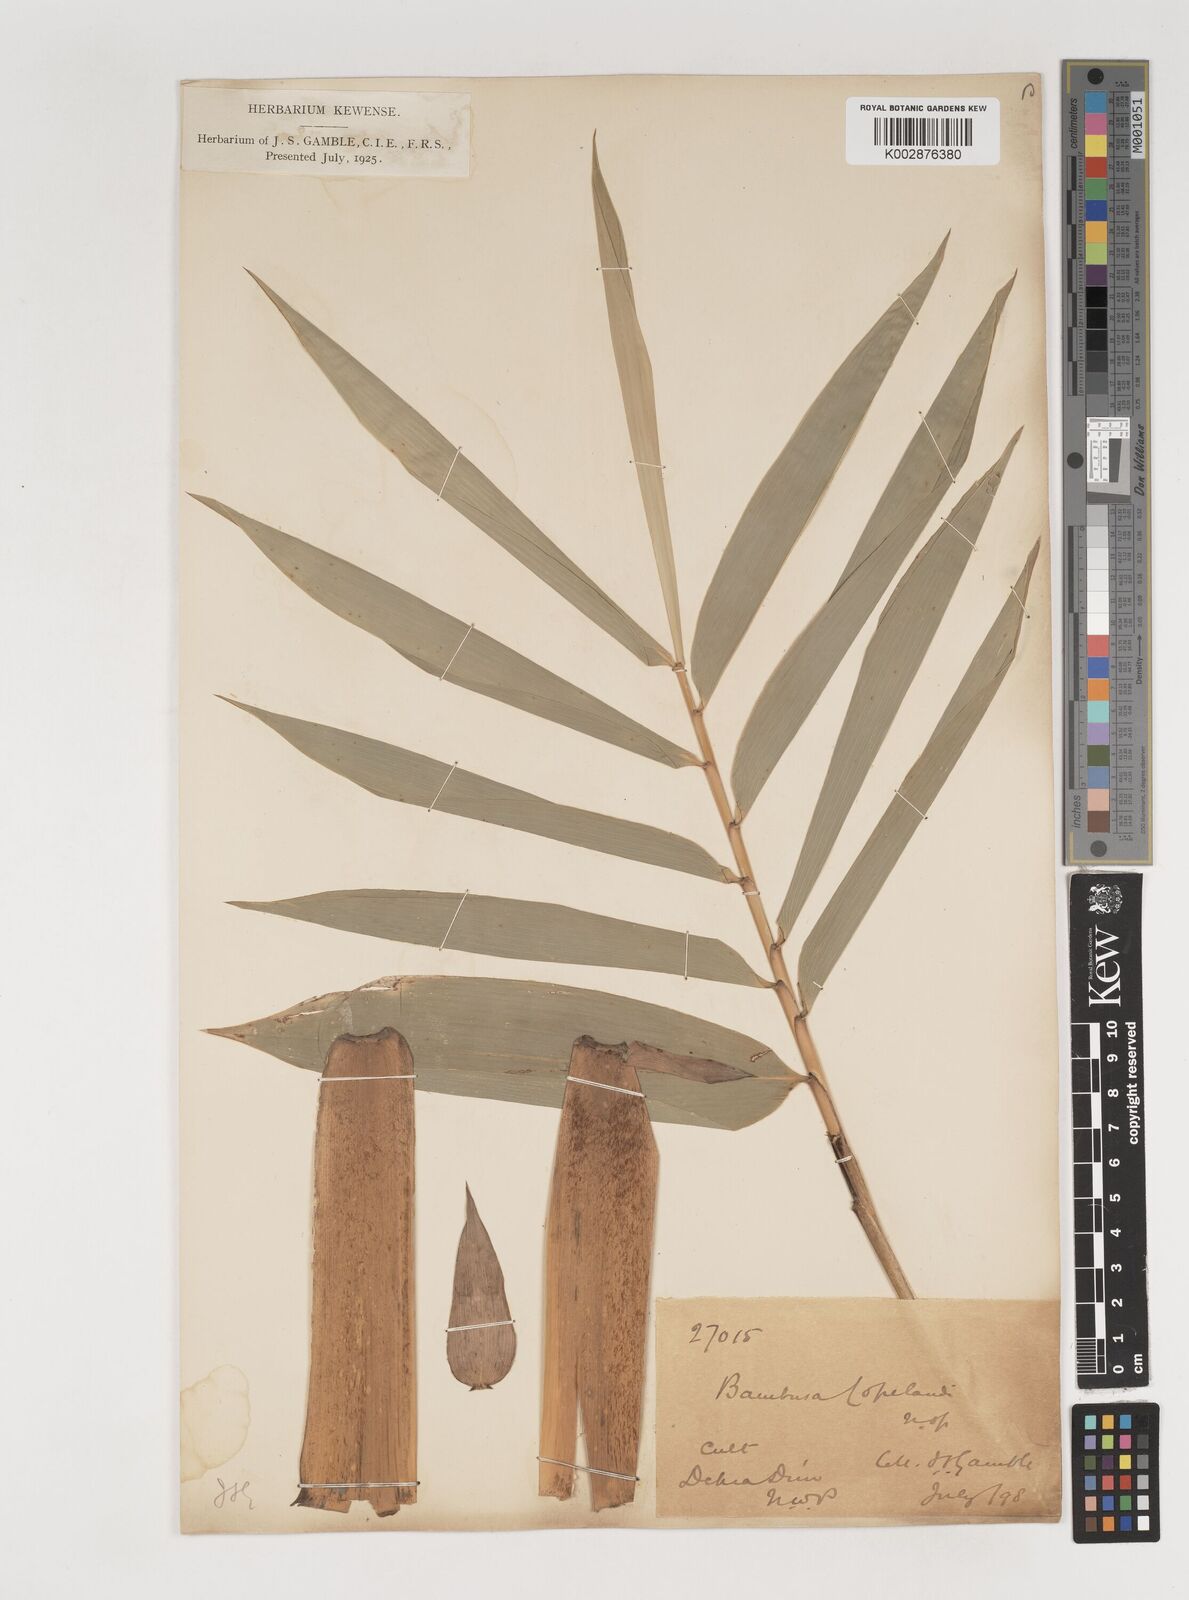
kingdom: Plantae
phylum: Tracheophyta
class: Liliopsida
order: Poales
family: Poaceae
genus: Bambusa
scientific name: Bambusa copelandii
